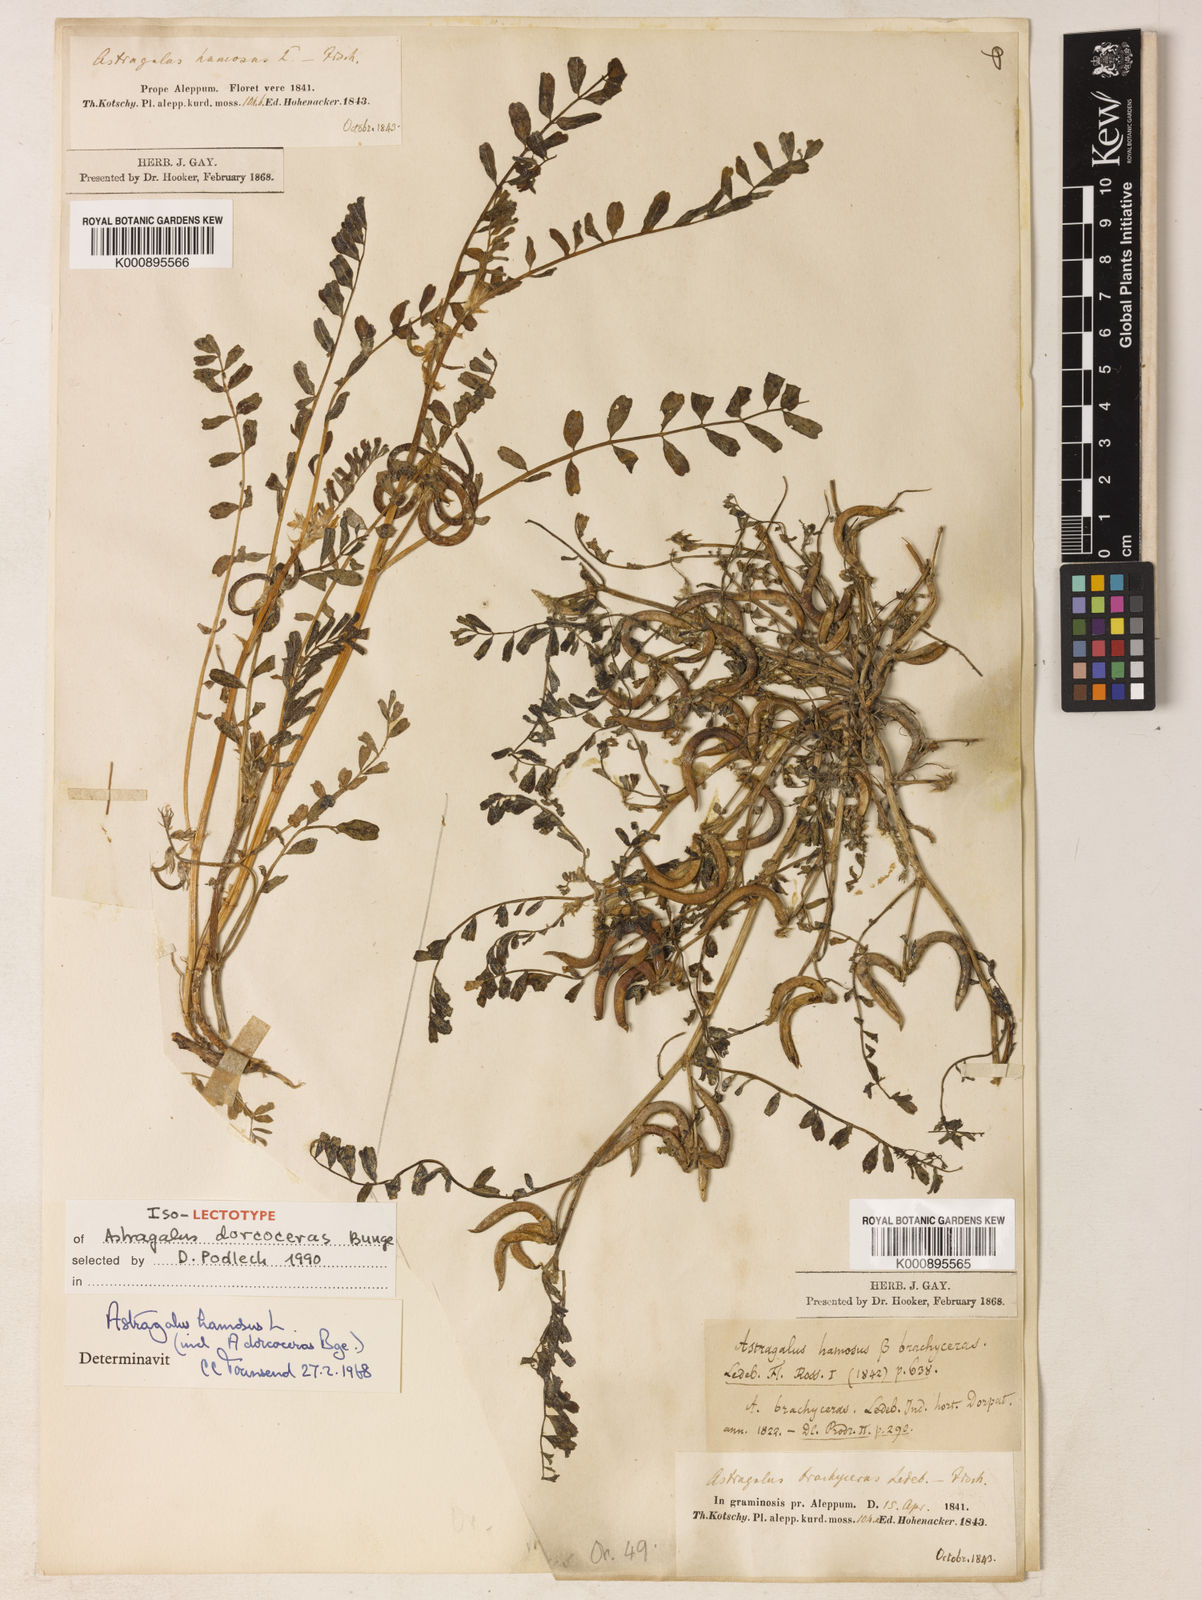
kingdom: Plantae
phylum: Tracheophyta
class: Magnoliopsida
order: Fabales
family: Fabaceae
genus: Astragalus
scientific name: Astragalus hamosus
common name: European milkvetch
